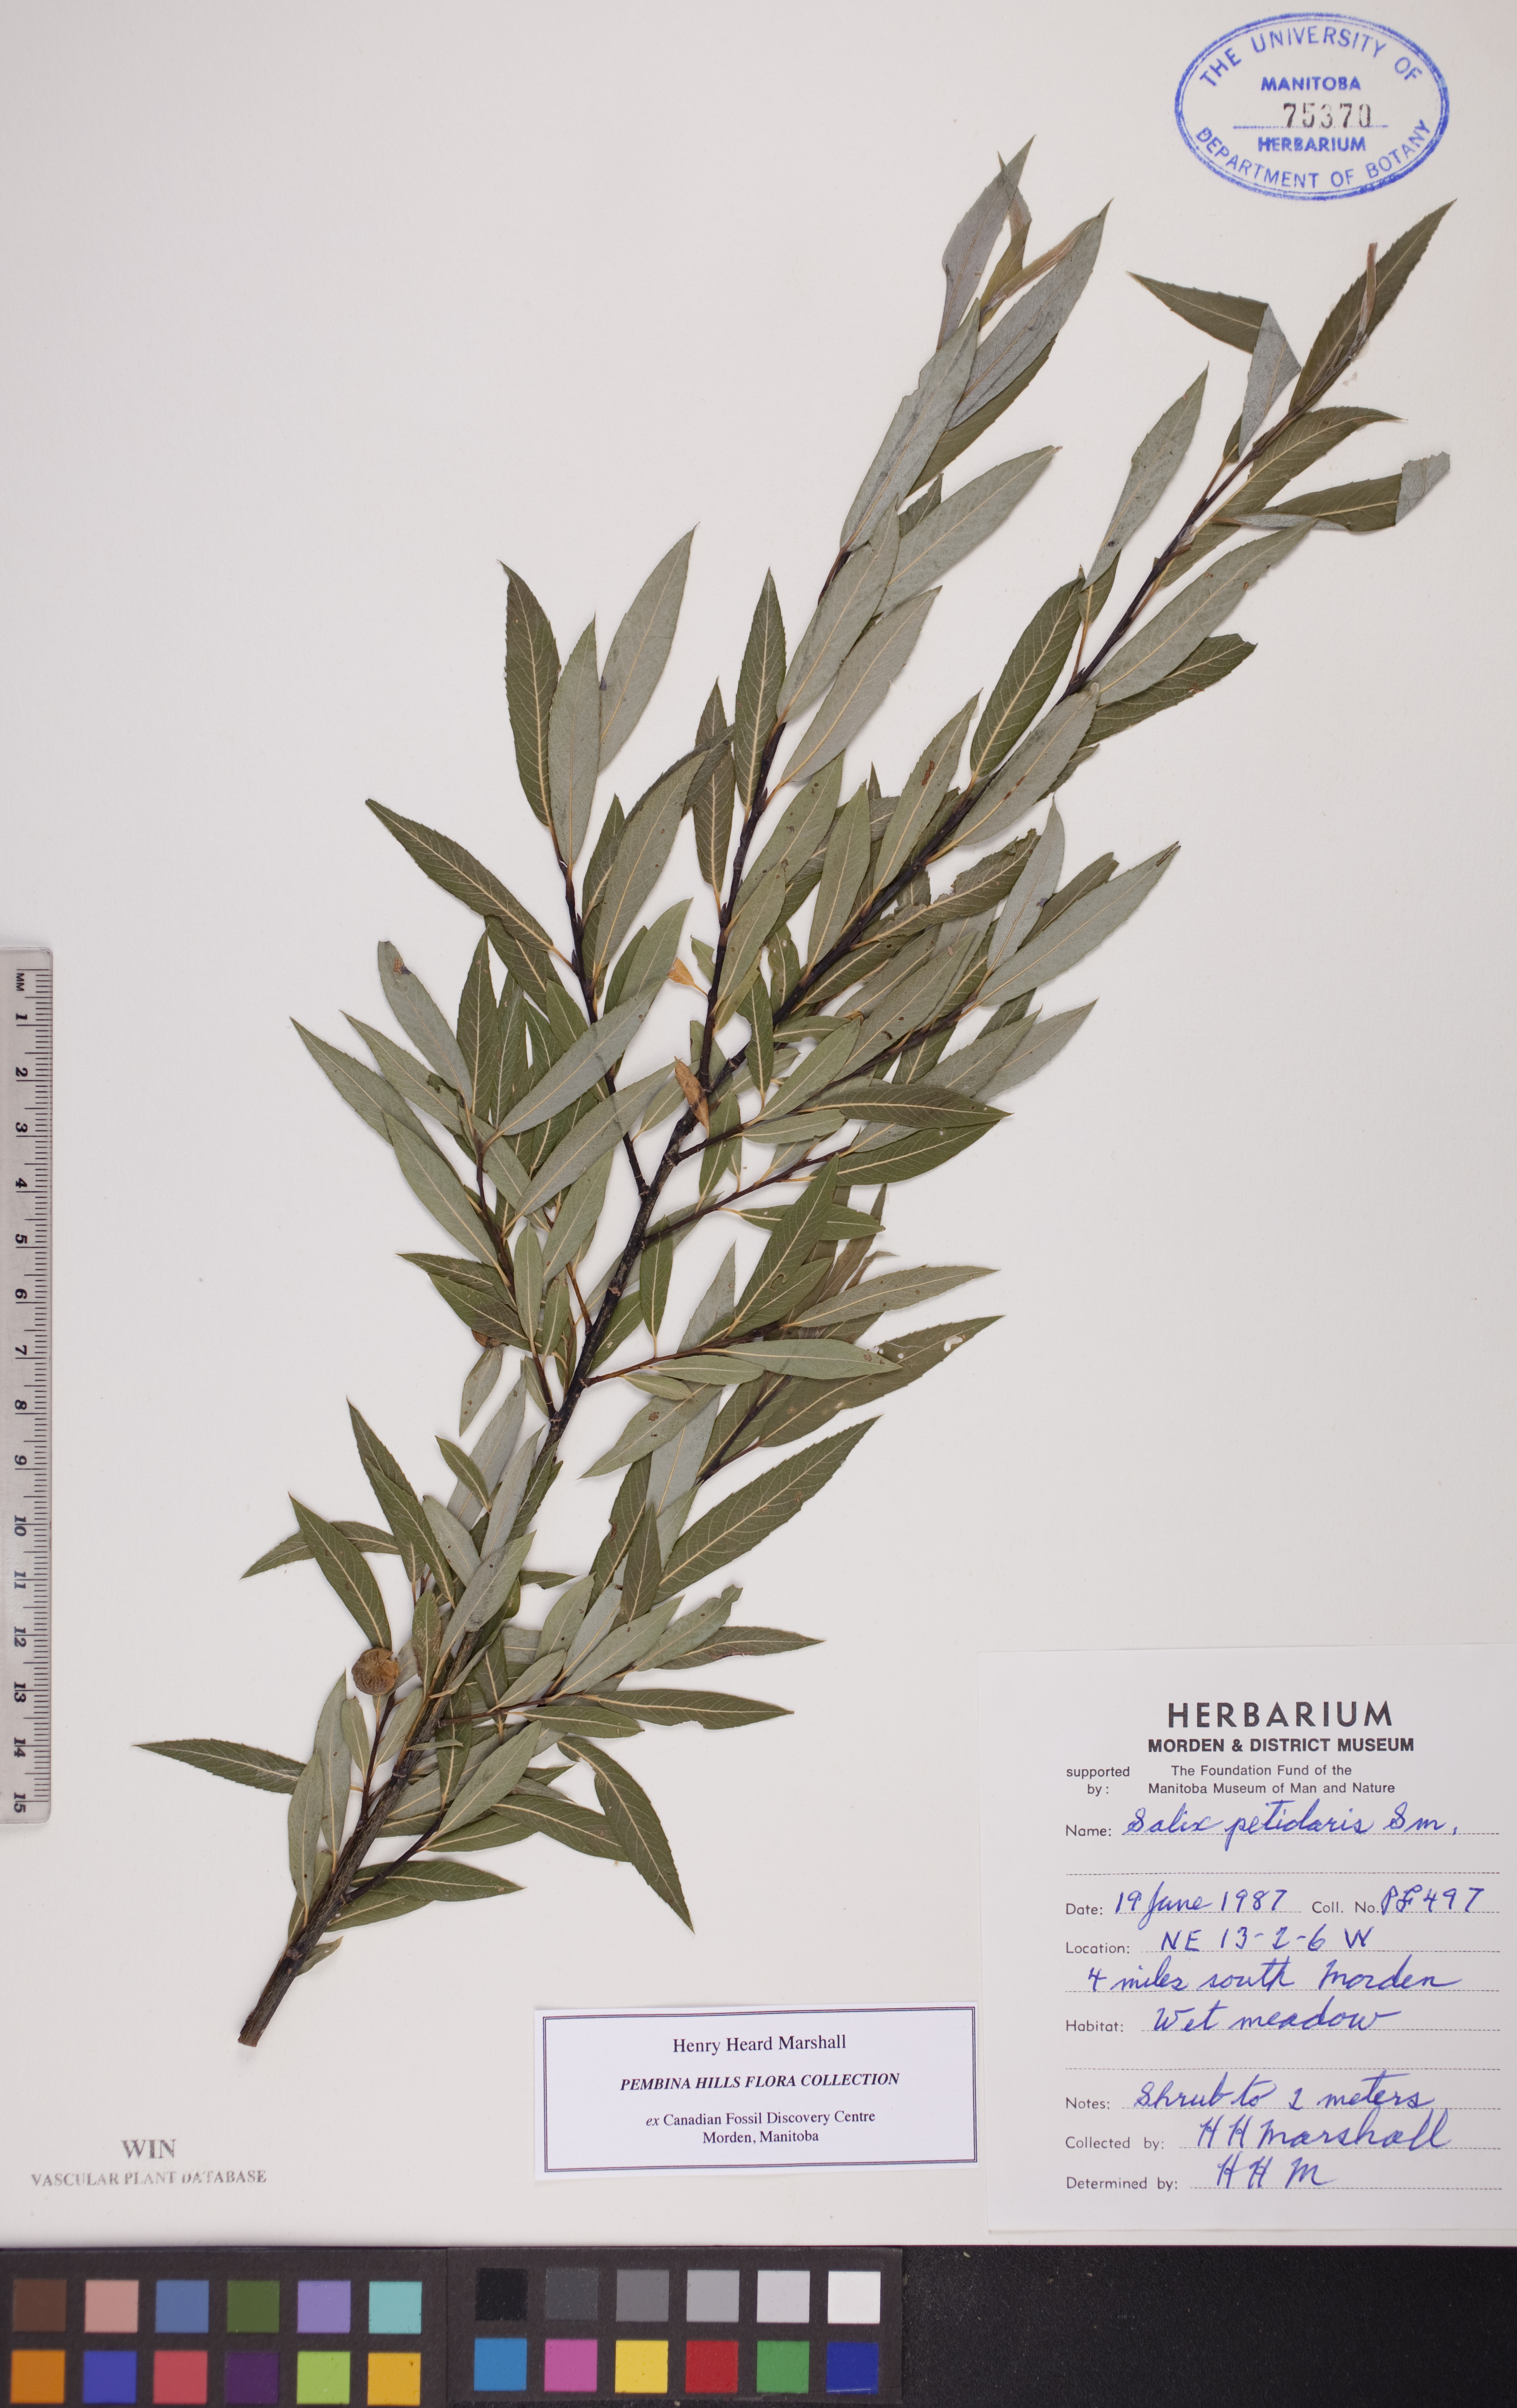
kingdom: Plantae
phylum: Tracheophyta
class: Magnoliopsida
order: Malpighiales
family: Salicaceae
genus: Salix
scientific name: Salix petiolaris
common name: Slender willow
